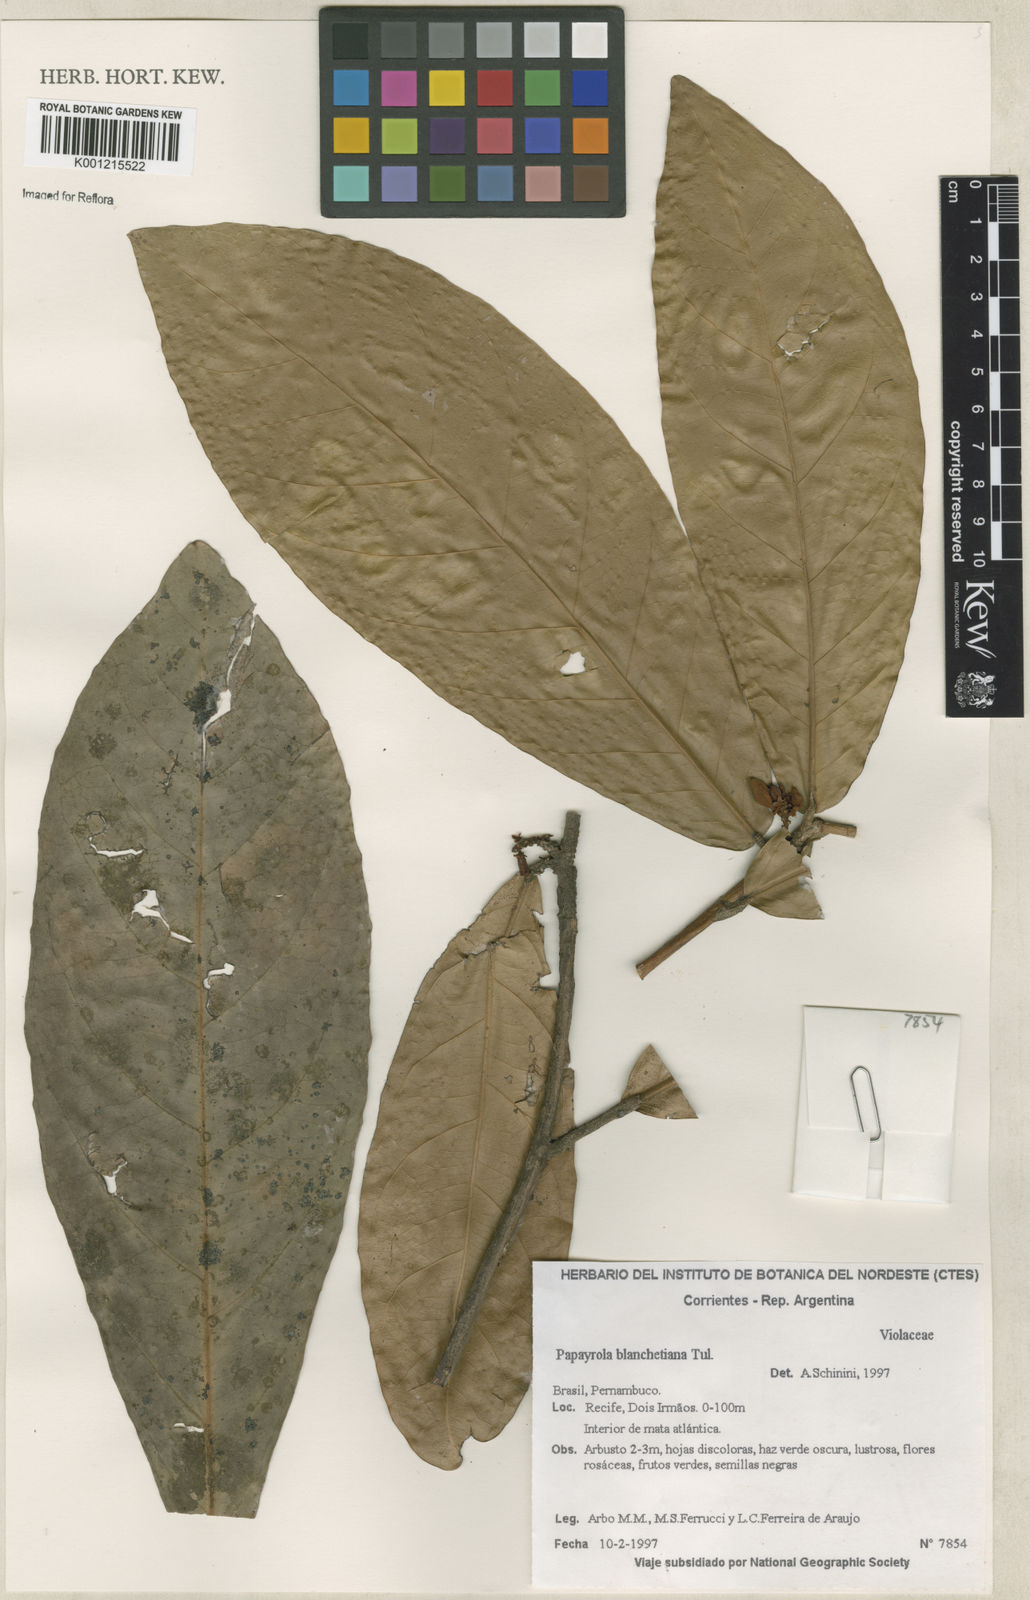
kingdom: Plantae
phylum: Tracheophyta
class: Magnoliopsida
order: Malpighiales
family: Violaceae
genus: Paypayrola
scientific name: Paypayrola blanchetiana
